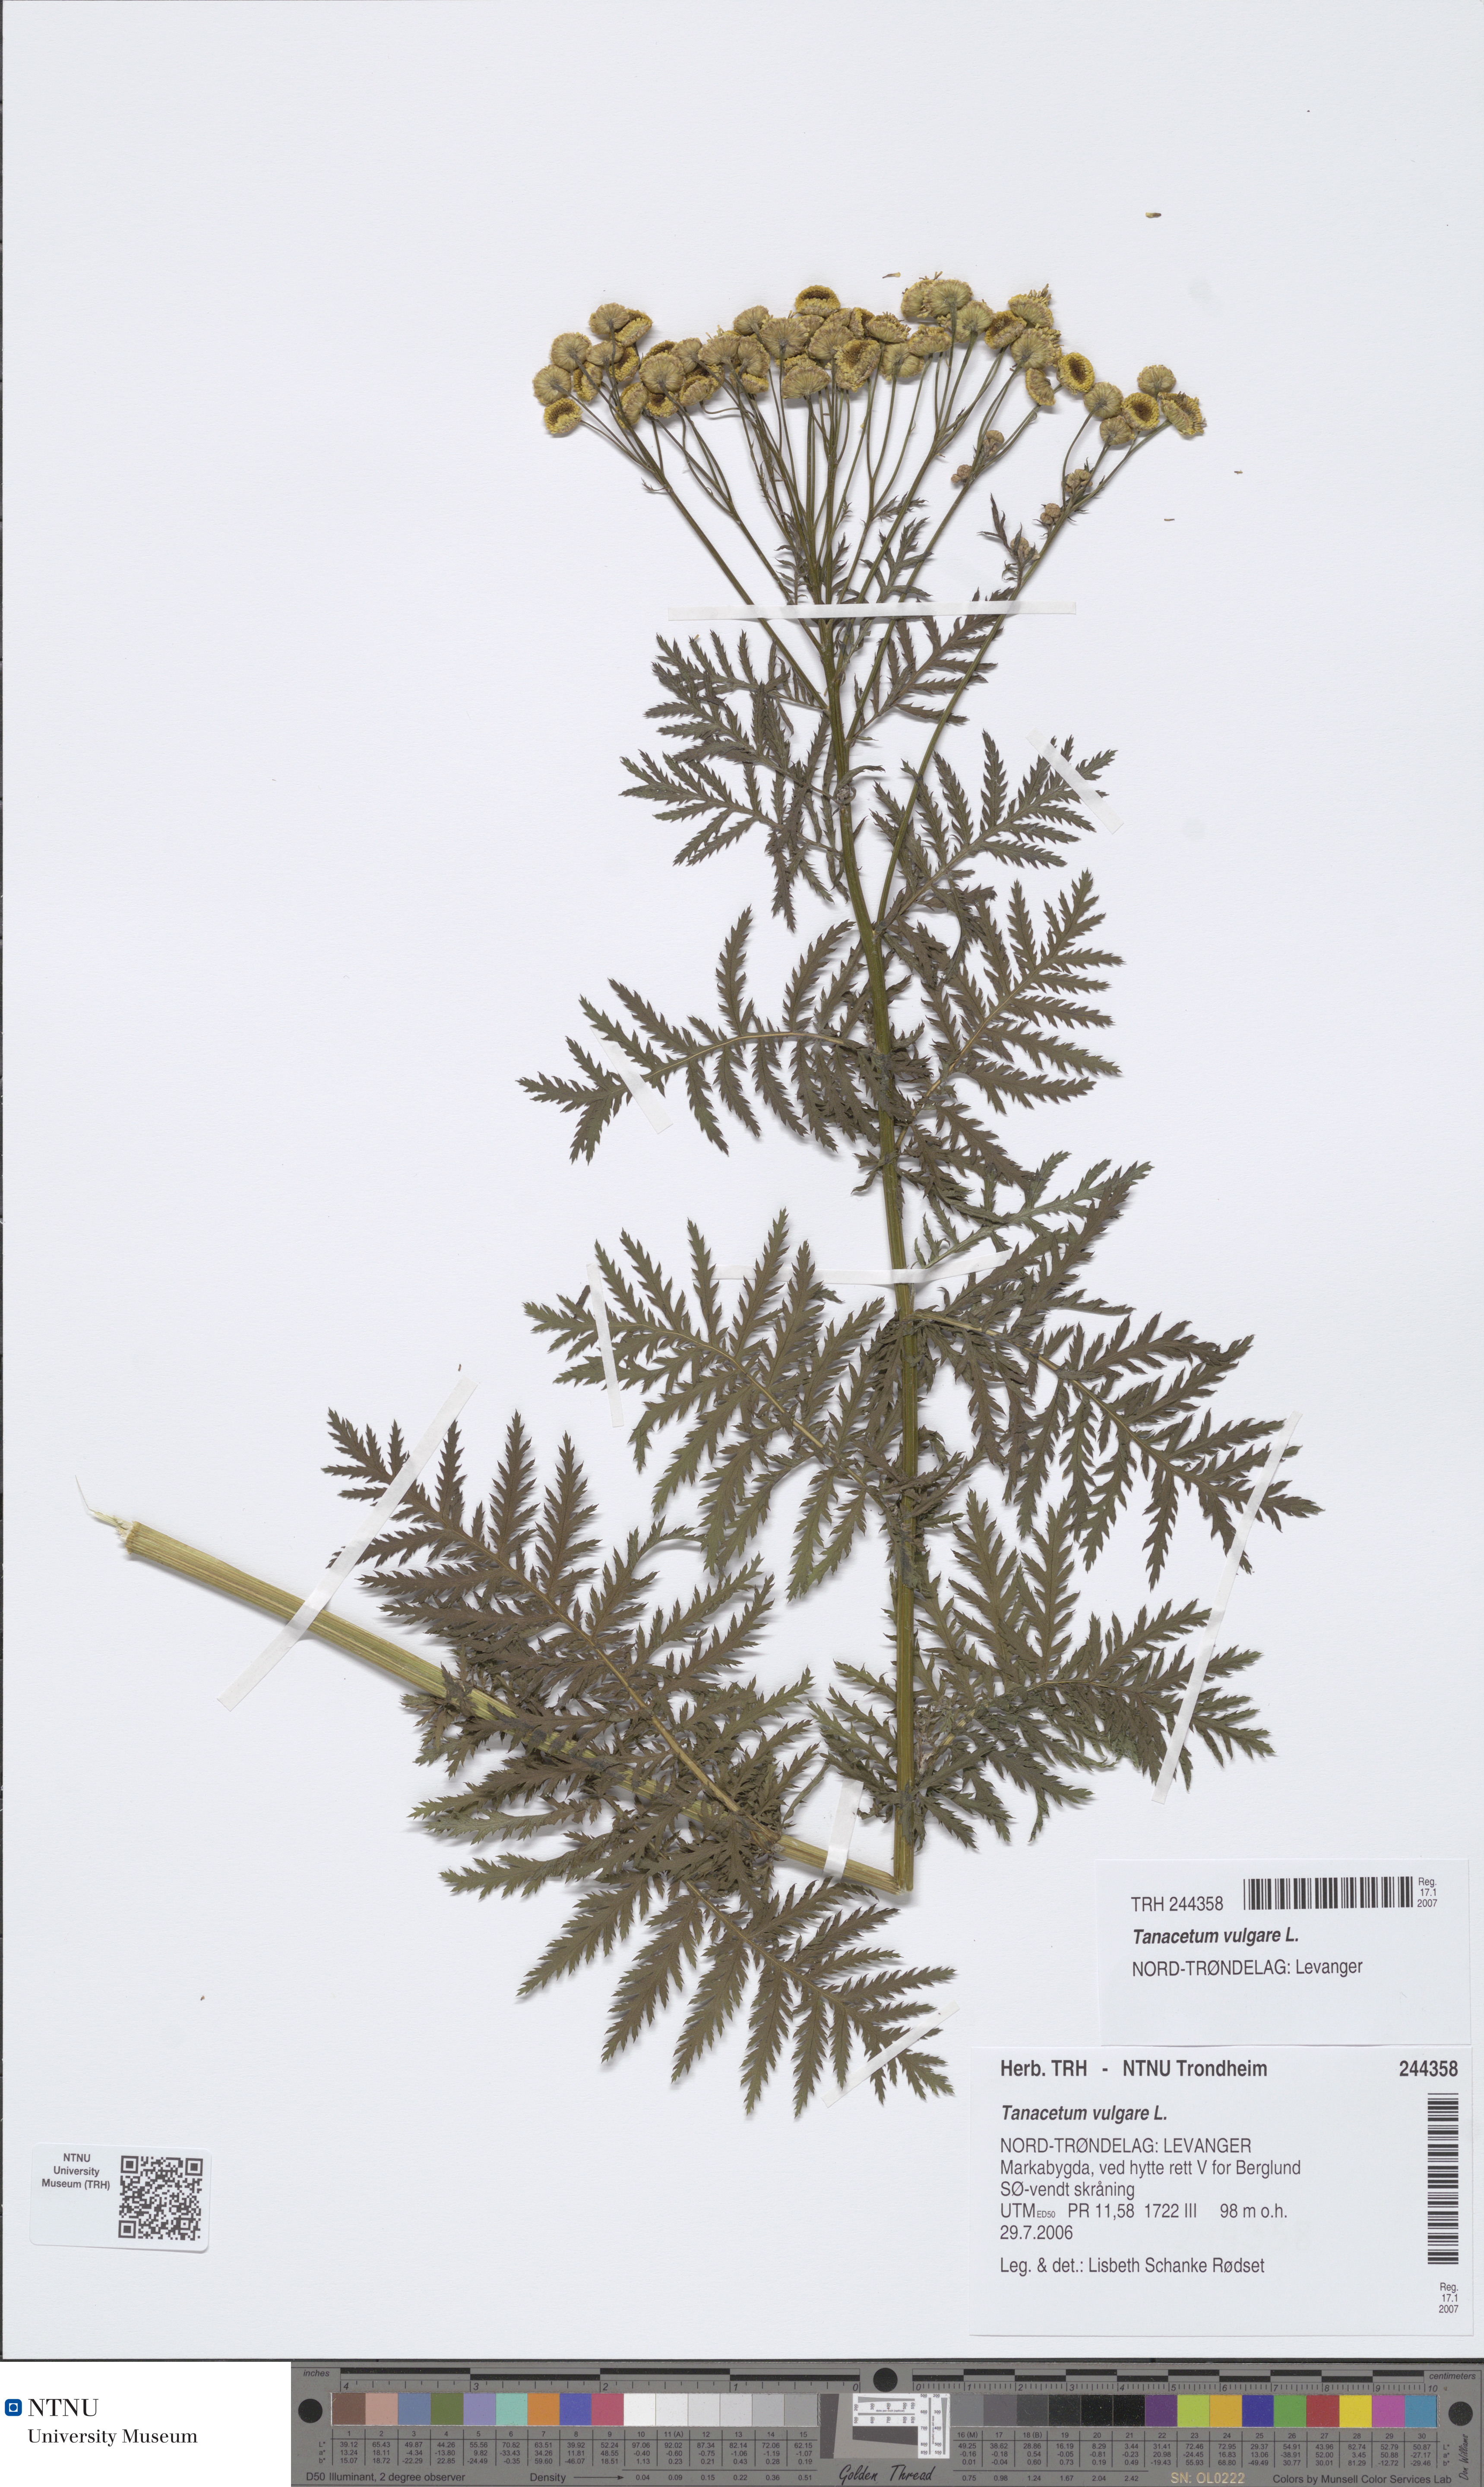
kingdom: Plantae
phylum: Tracheophyta
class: Magnoliopsida
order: Asterales
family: Asteraceae
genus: Tanacetum
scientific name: Tanacetum vulgare
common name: Common tansy
